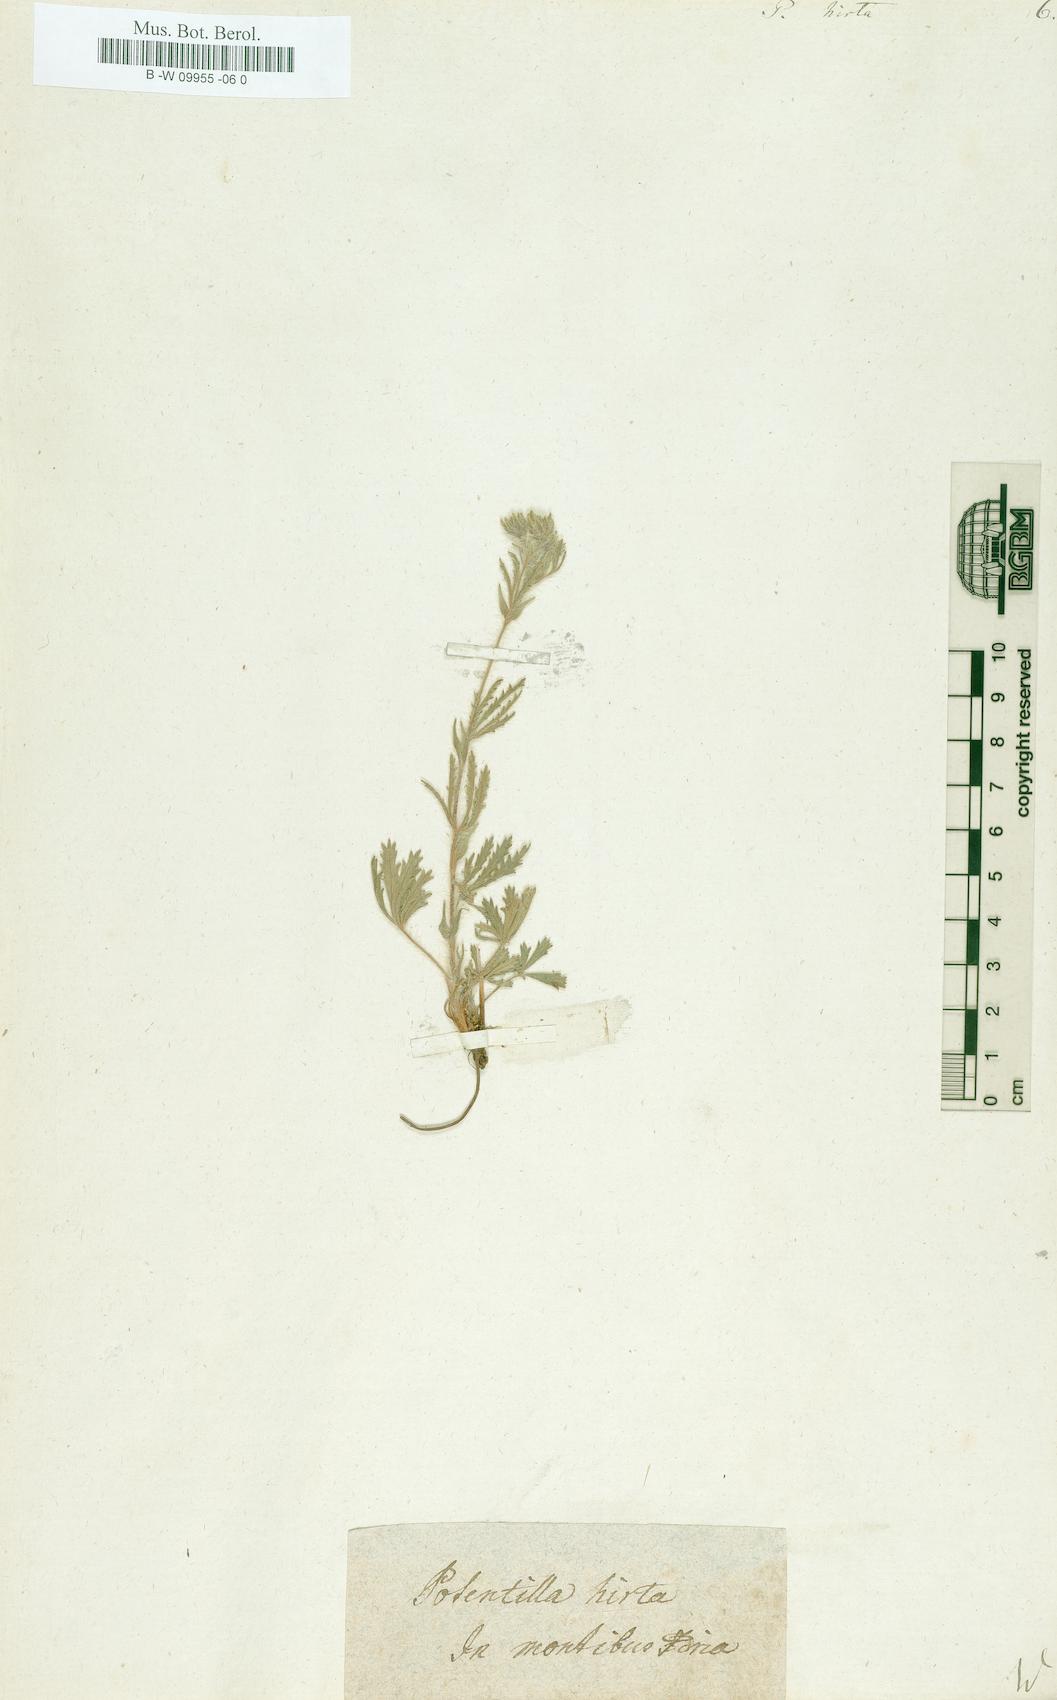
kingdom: Plantae
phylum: Tracheophyta
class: Magnoliopsida
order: Rosales
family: Rosaceae
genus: Potentilla
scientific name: Potentilla hirta
